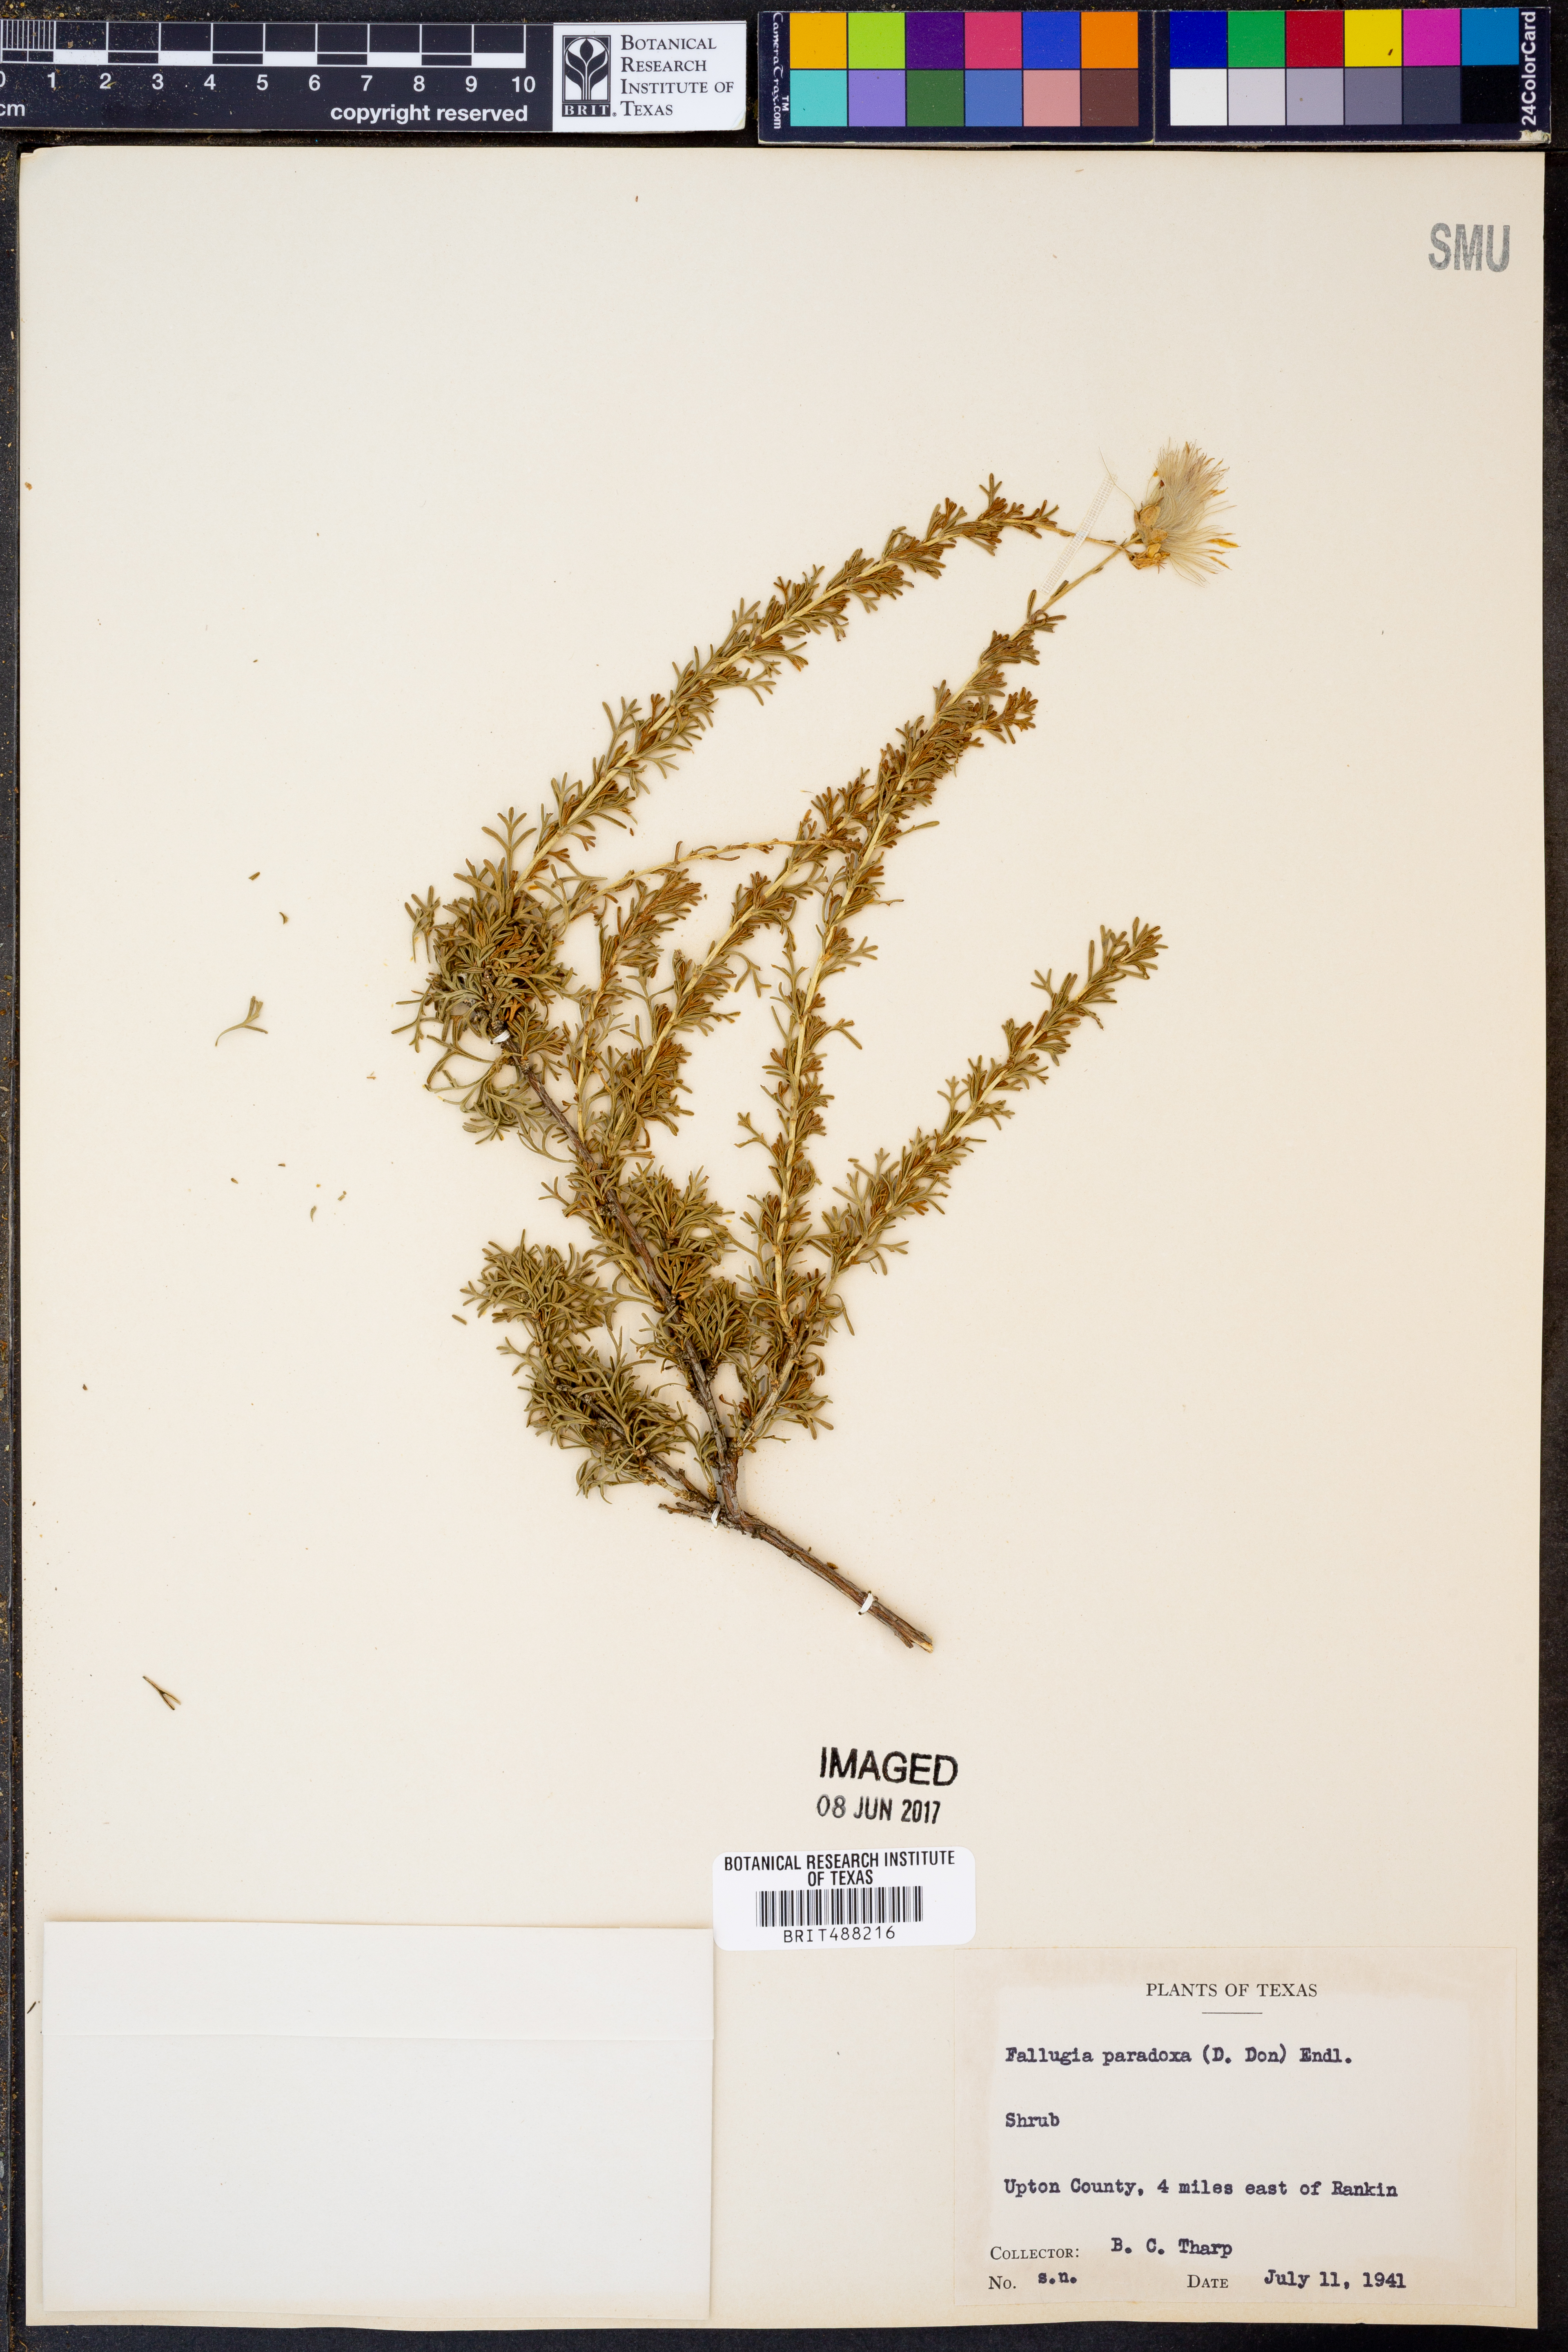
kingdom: Plantae
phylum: Tracheophyta
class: Magnoliopsida
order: Rosales
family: Rosaceae
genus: Fallugia
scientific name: Fallugia paradoxa
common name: Apache-plume
